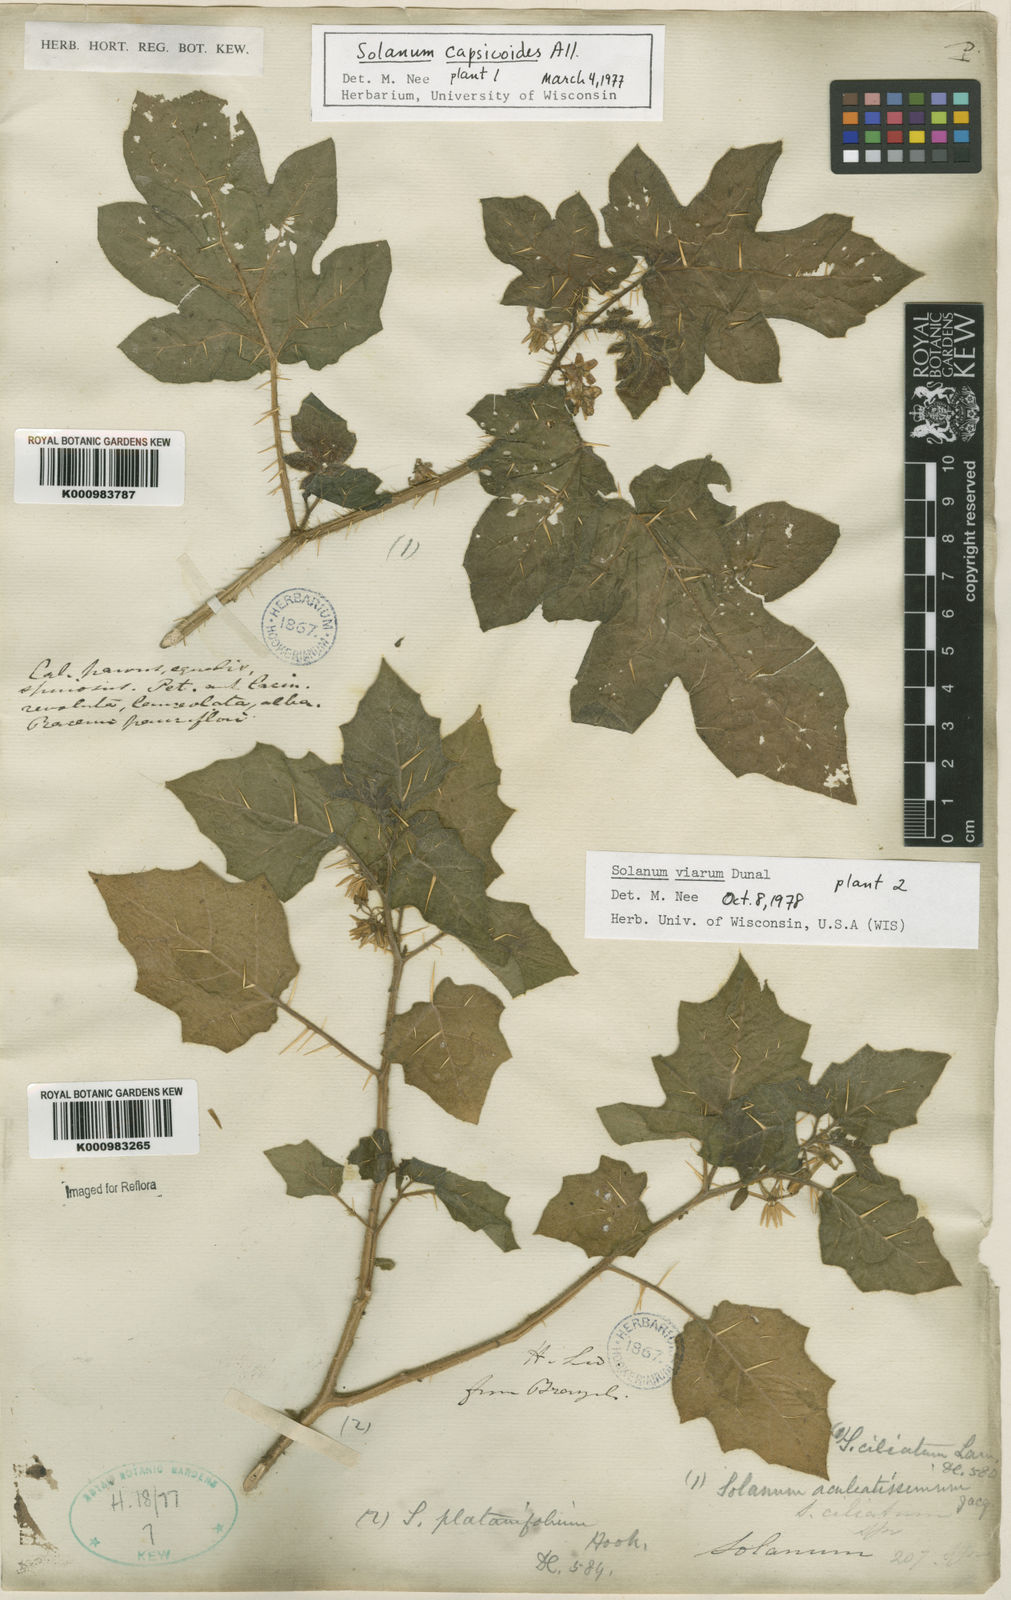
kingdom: Plantae
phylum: Tracheophyta
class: Magnoliopsida
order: Solanales
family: Solanaceae
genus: Solanum
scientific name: Solanum viarum
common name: Tropical soda apple
